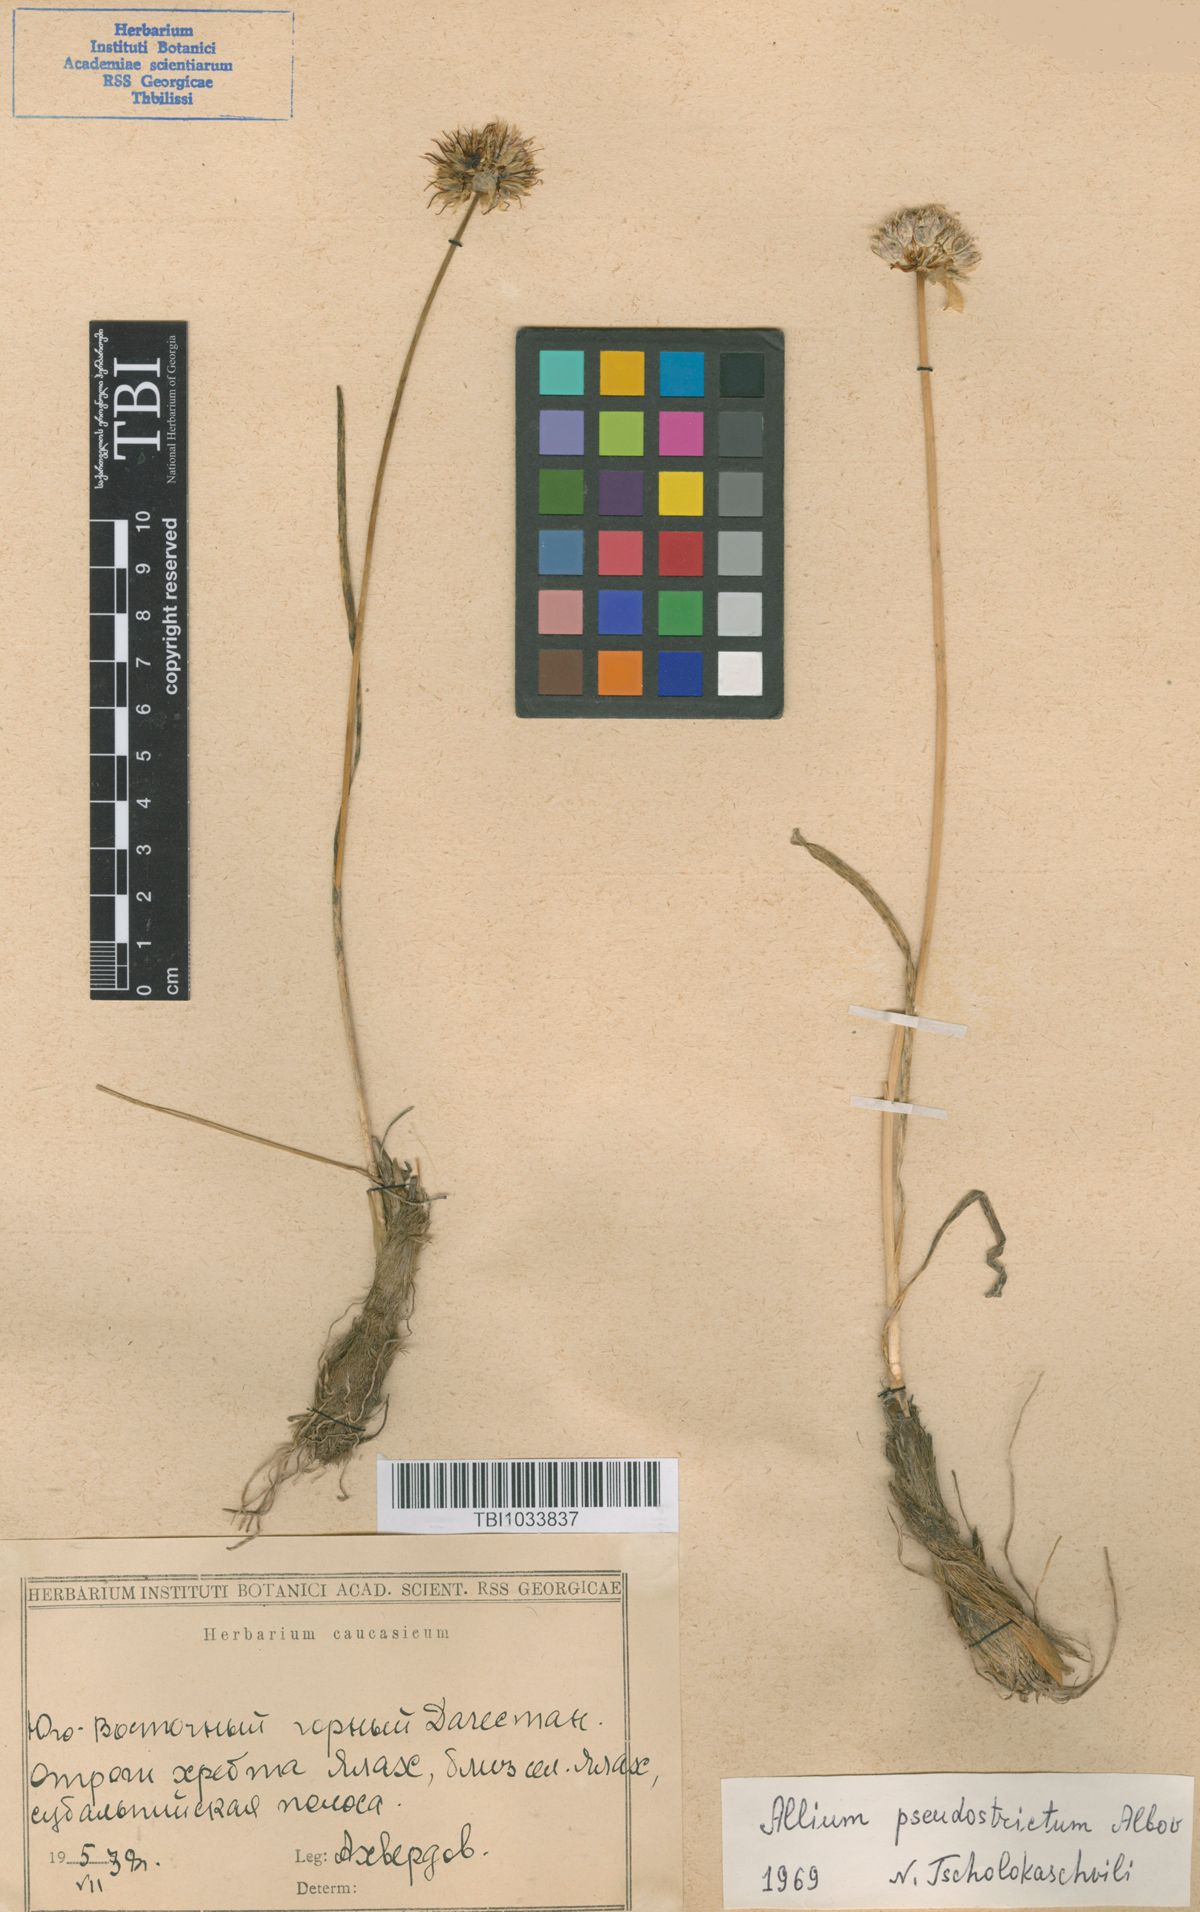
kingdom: Plantae
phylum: Tracheophyta
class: Liliopsida
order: Asparagales
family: Amaryllidaceae
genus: Allium
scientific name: Allium pseudostrictum
